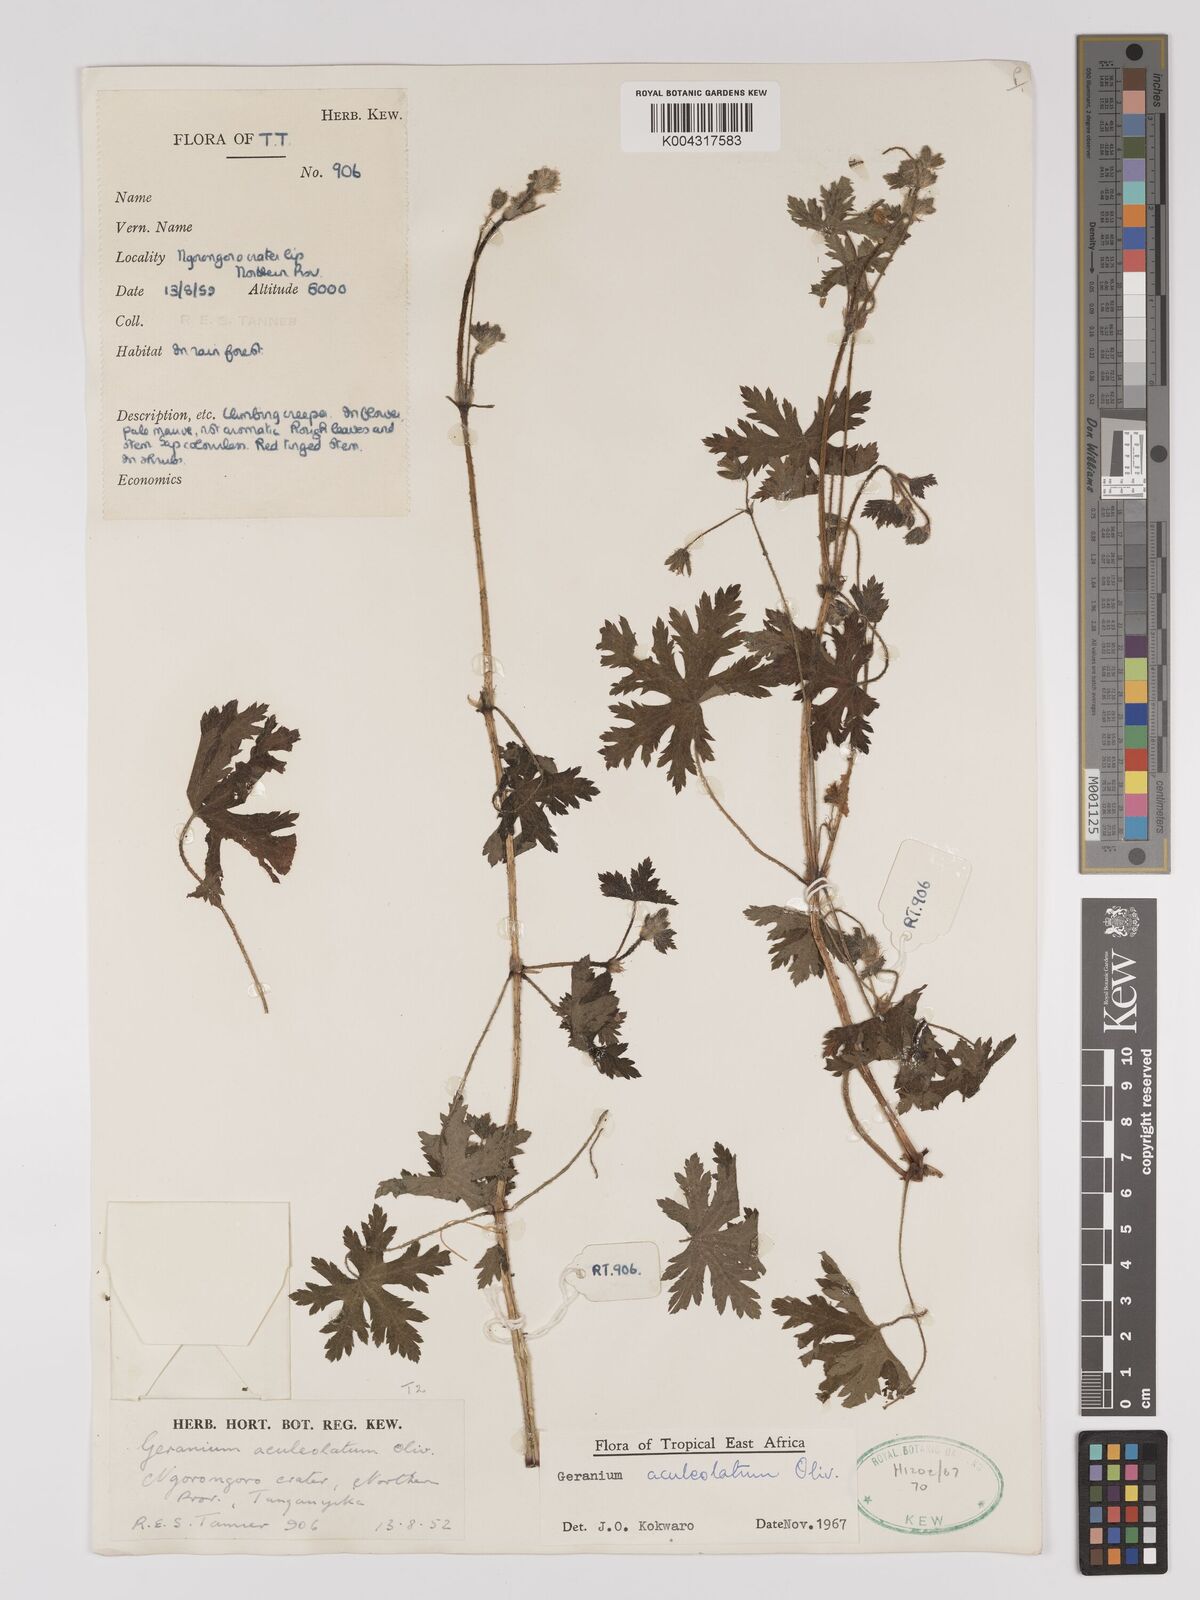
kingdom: Plantae
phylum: Tracheophyta
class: Magnoliopsida
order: Geraniales
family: Geraniaceae
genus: Geranium
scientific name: Geranium aculeolatum
